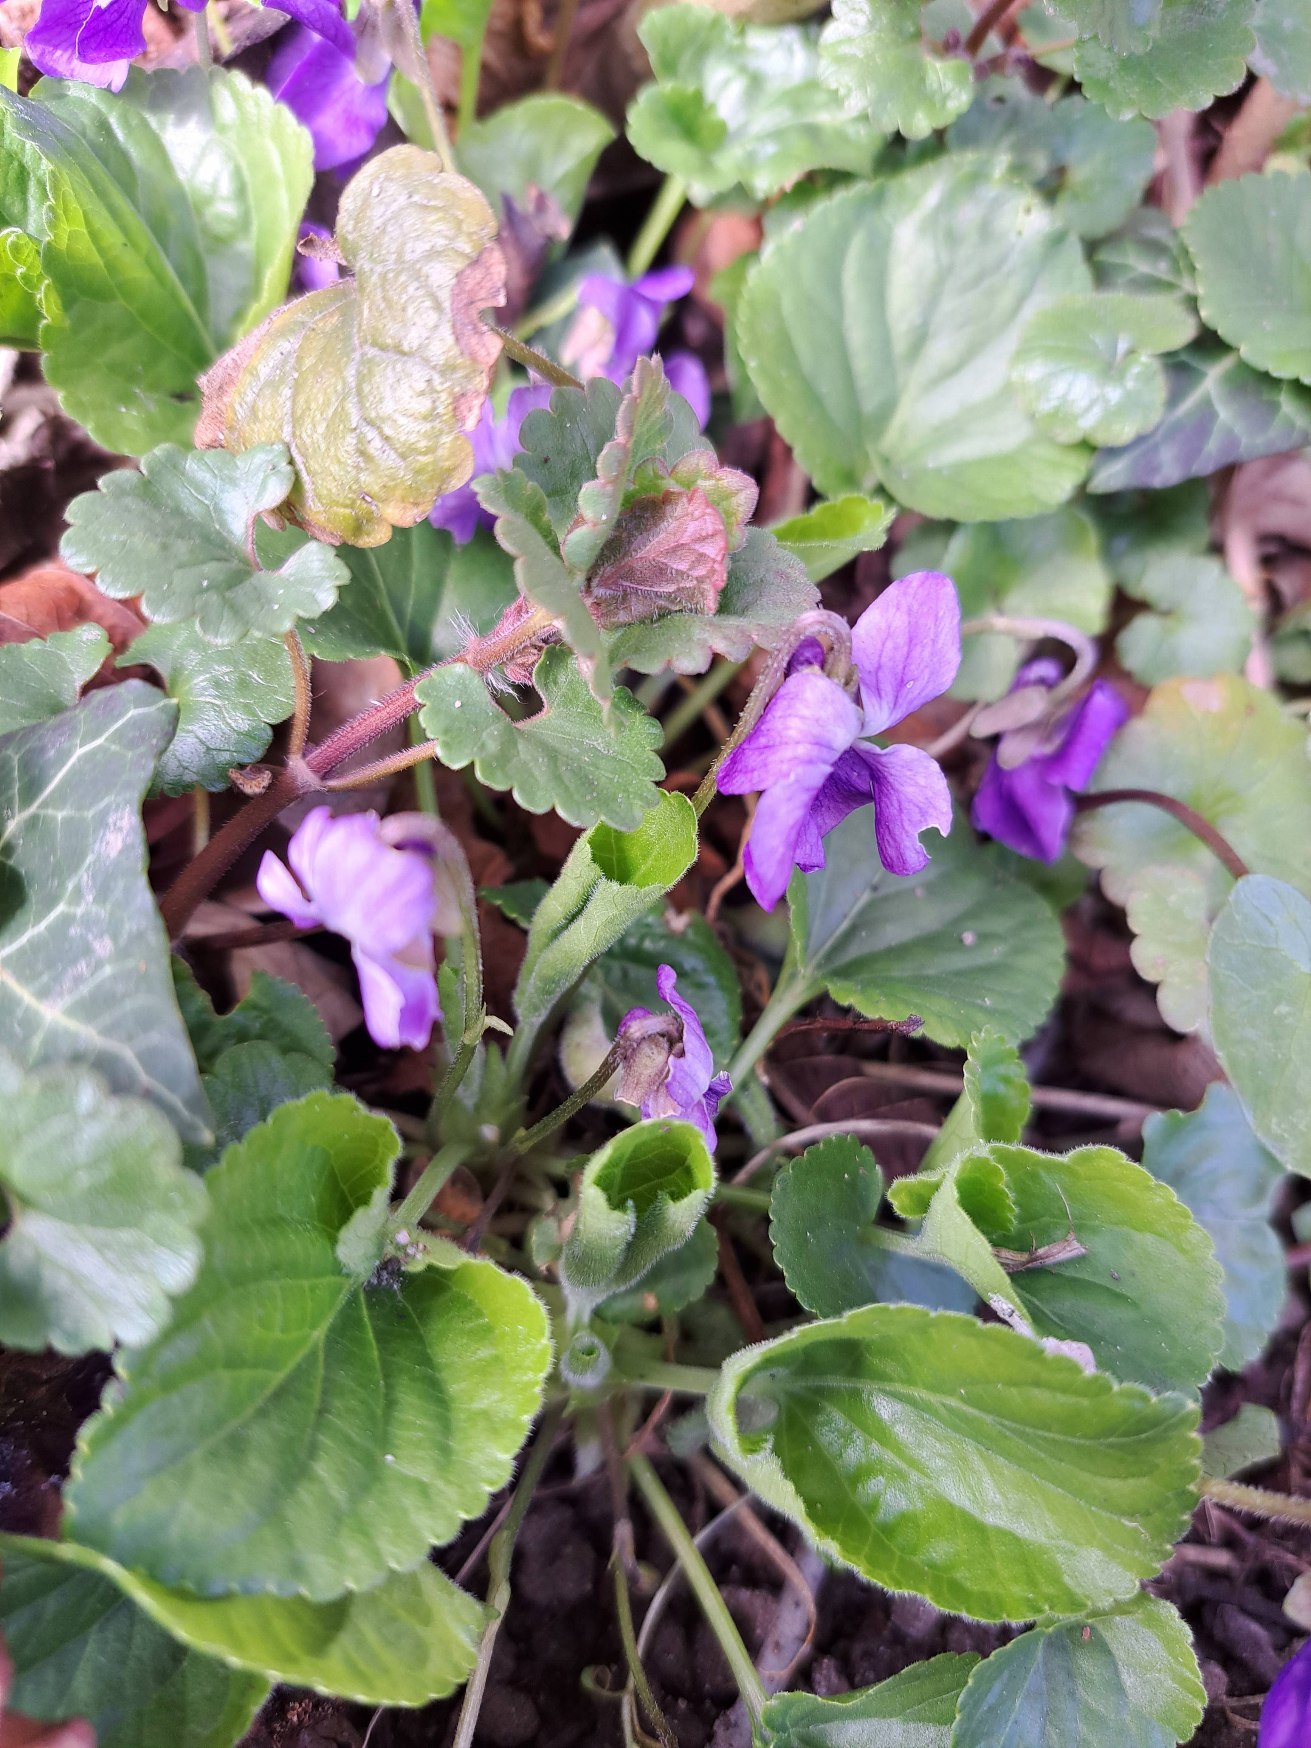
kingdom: Plantae
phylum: Tracheophyta
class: Magnoliopsida
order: Malpighiales
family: Violaceae
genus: Viola
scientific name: Viola odorata
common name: Marts-viol
